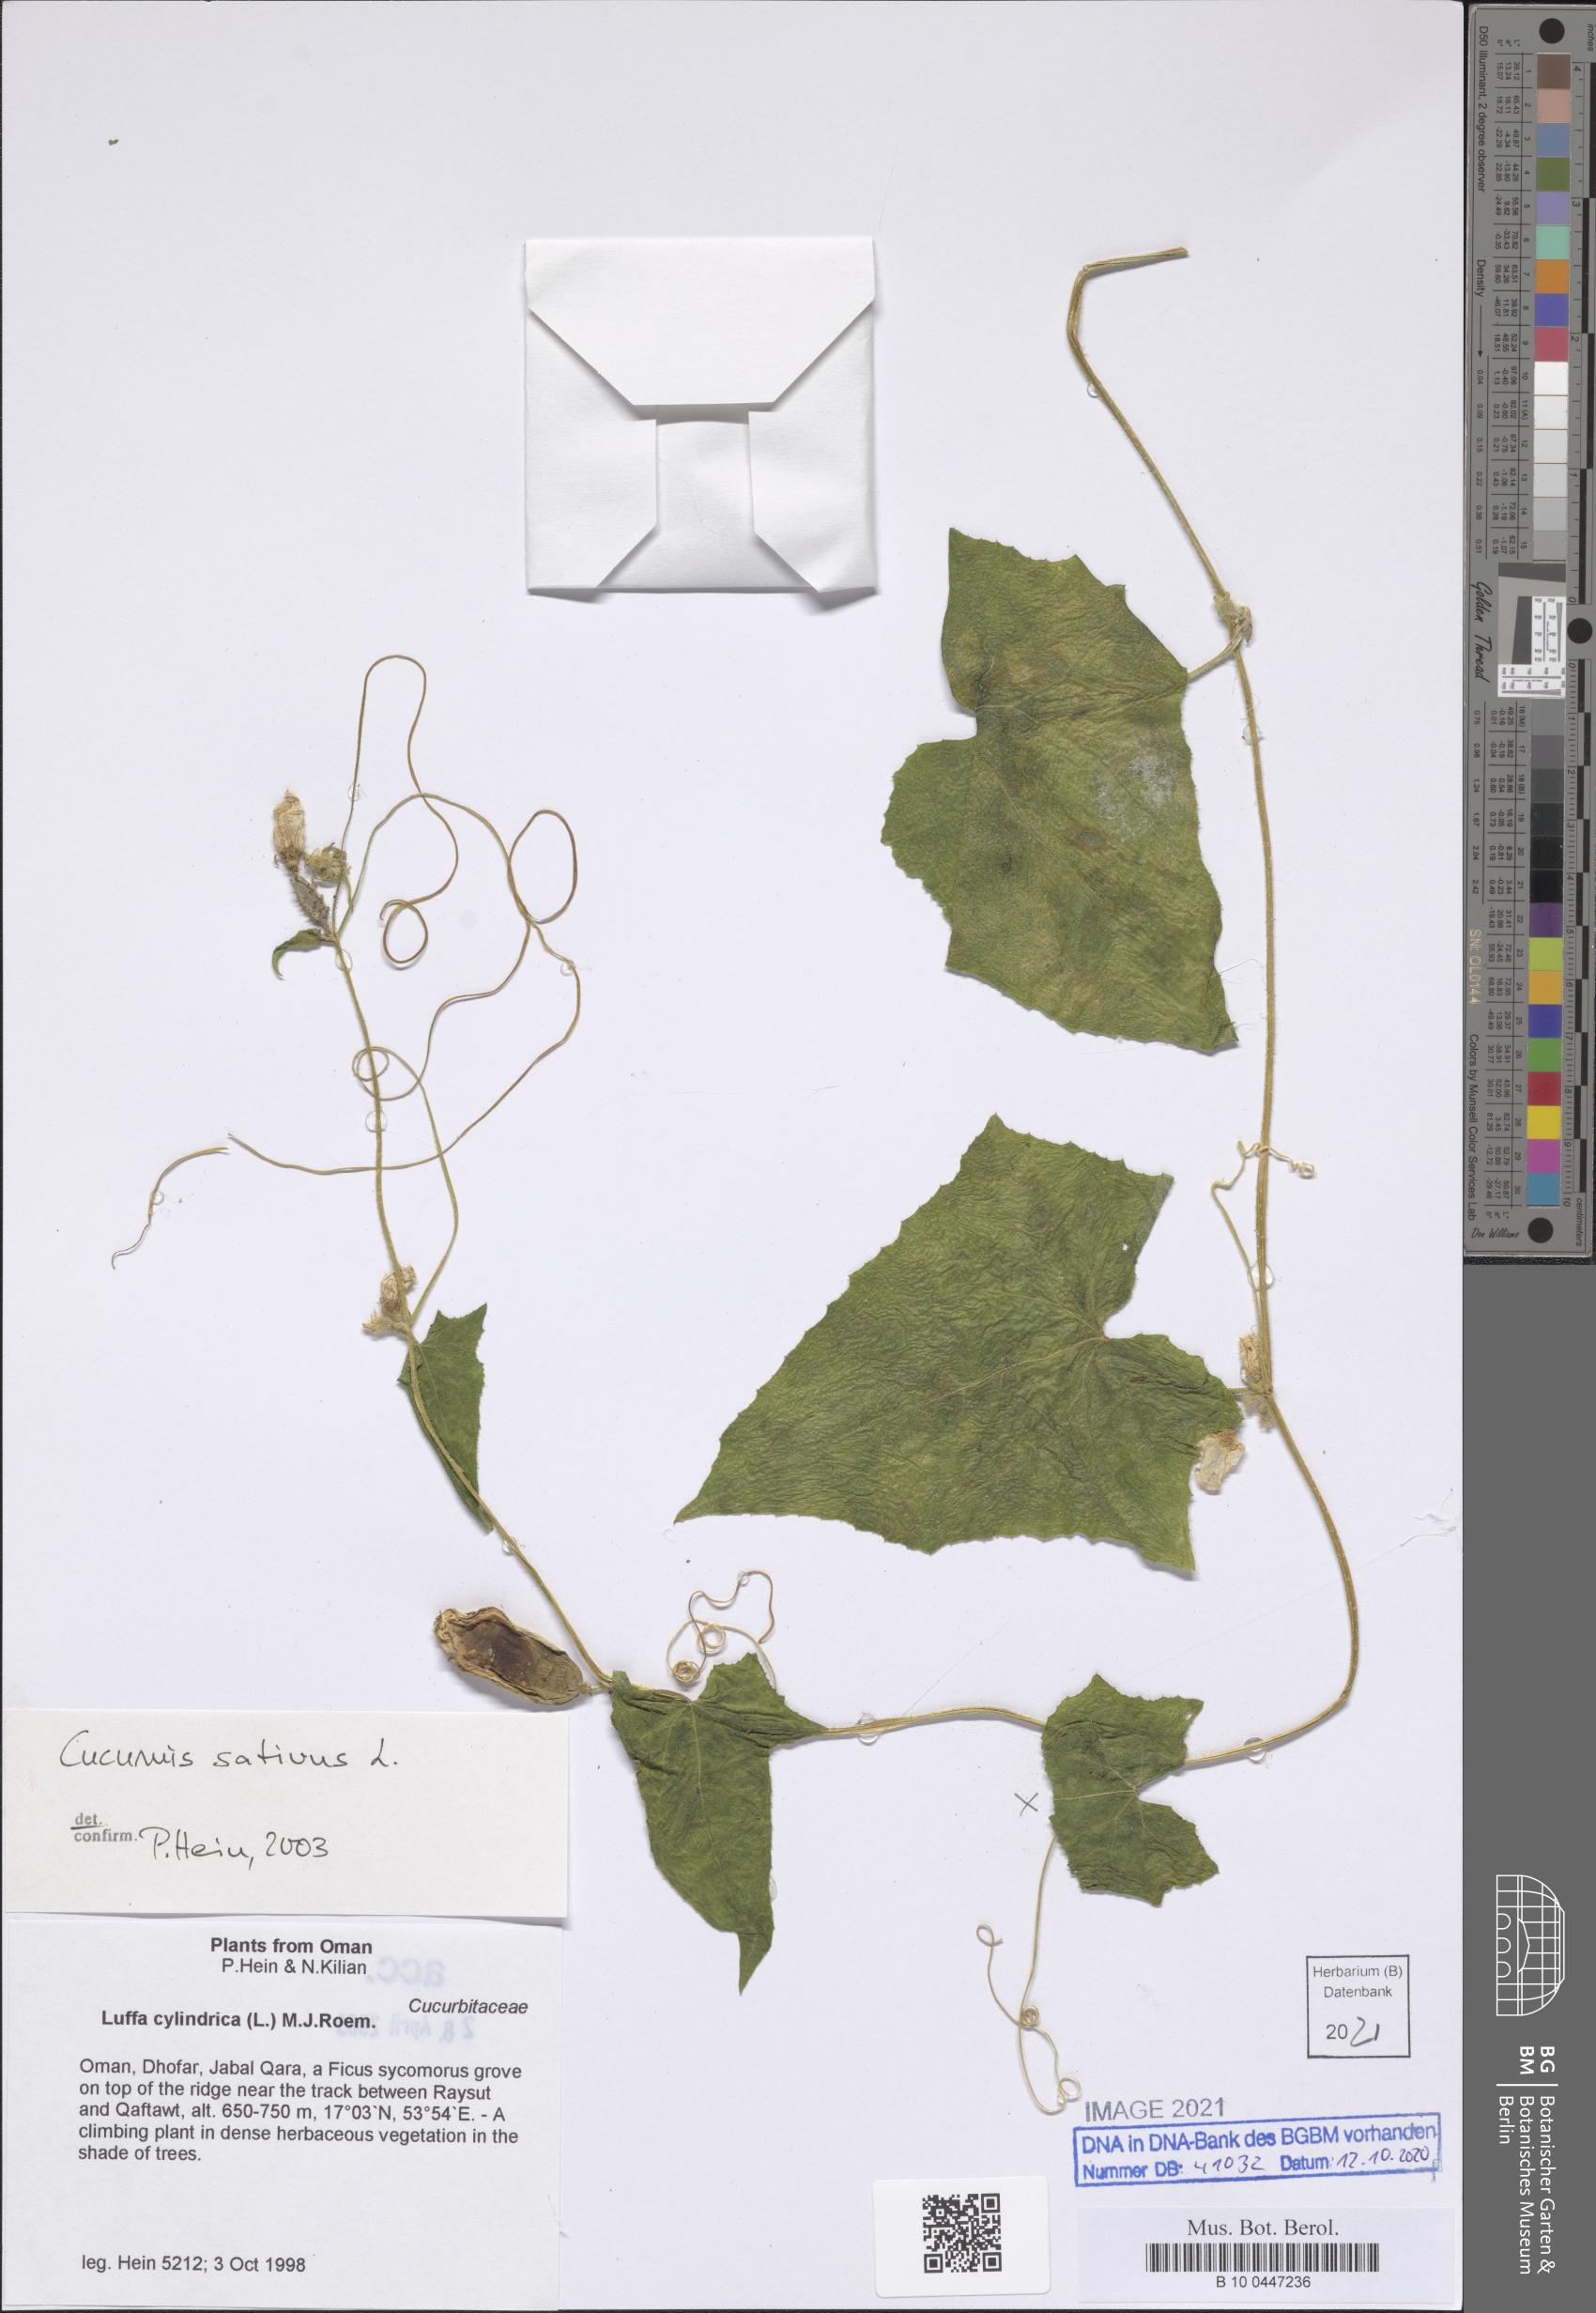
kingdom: Plantae
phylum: Tracheophyta
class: Magnoliopsida
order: Cucurbitales
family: Cucurbitaceae
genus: Cucumis
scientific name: Cucumis sativus
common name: Cucumber
